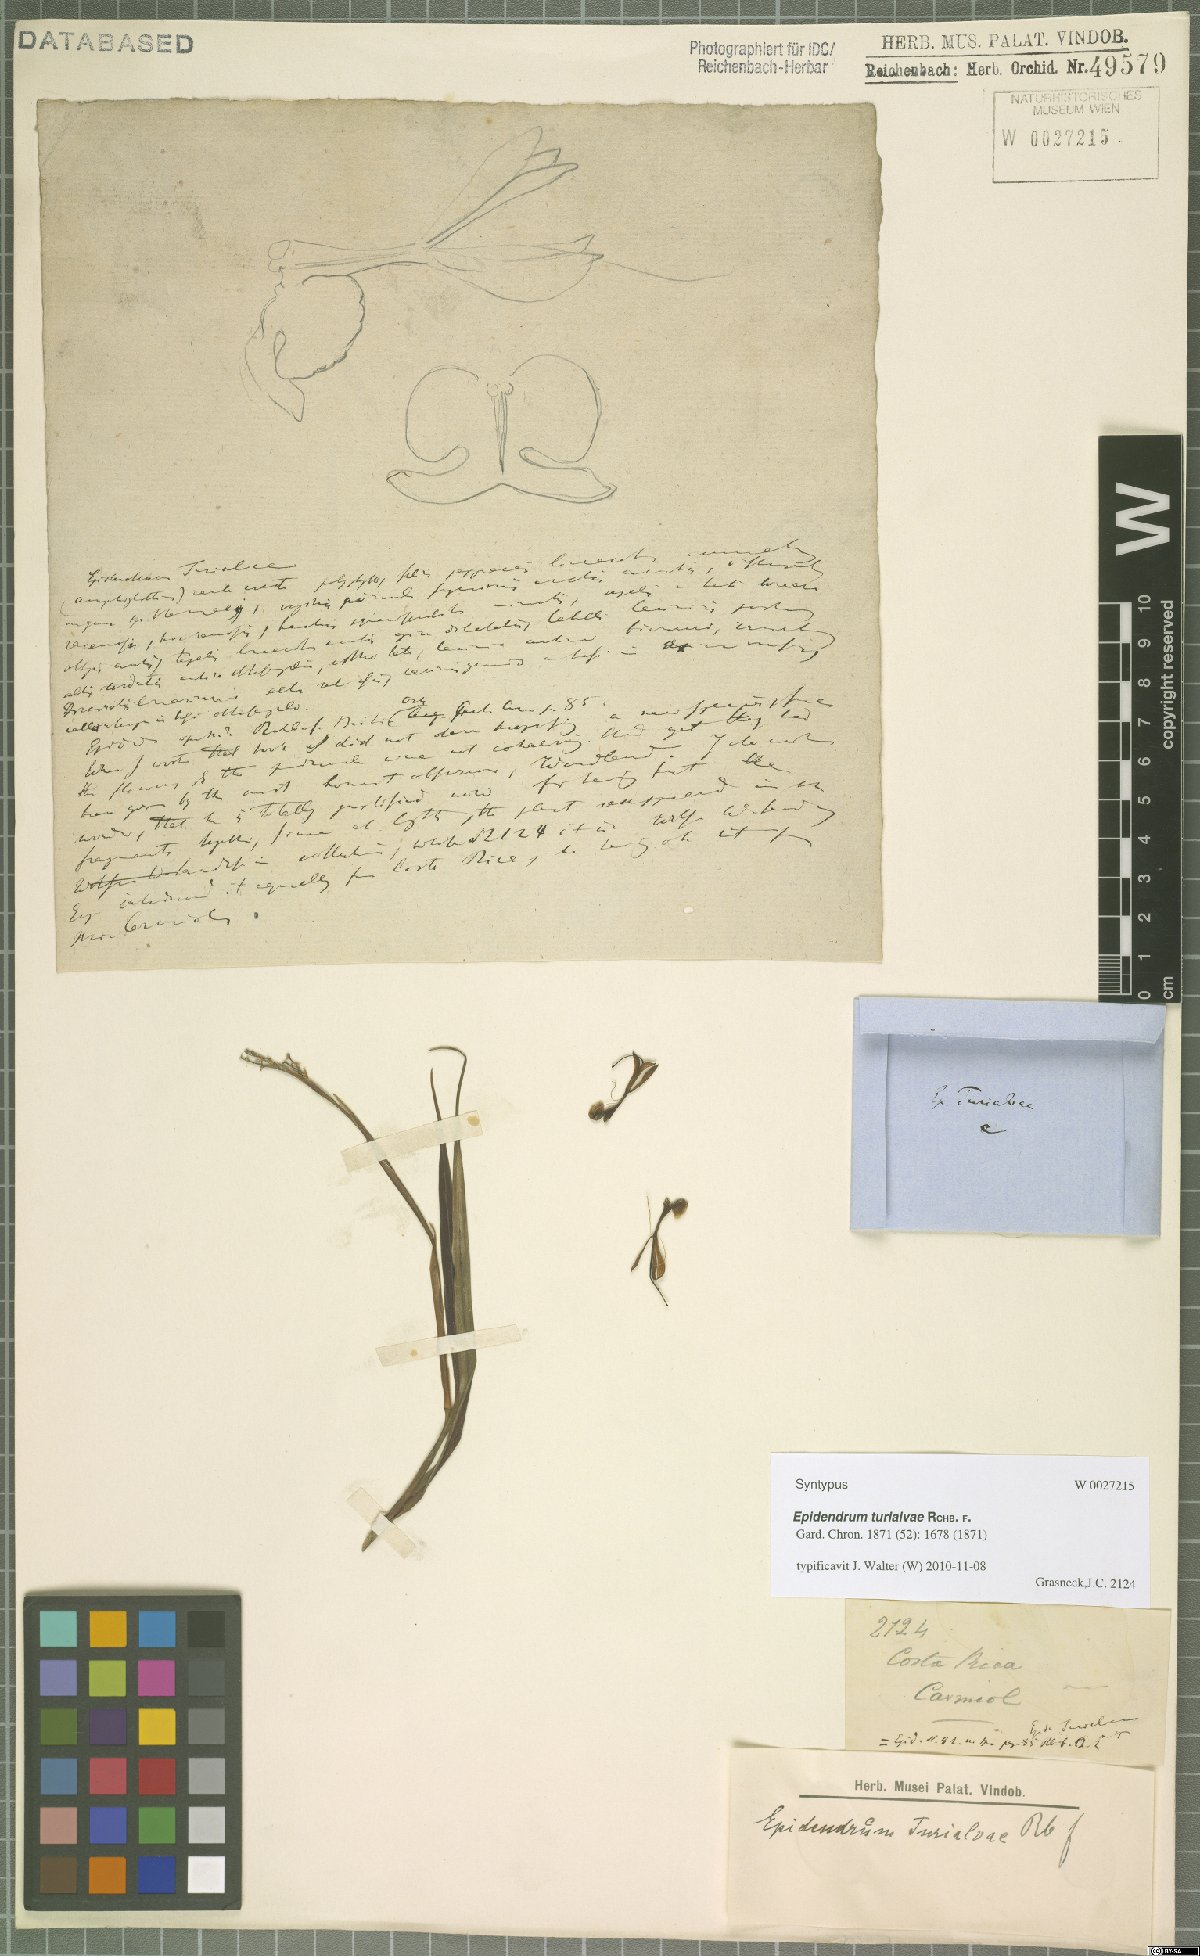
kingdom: Plantae
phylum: Tracheophyta
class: Liliopsida
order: Asparagales
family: Orchidaceae
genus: Epidendrum
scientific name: Epidendrum turialvae
